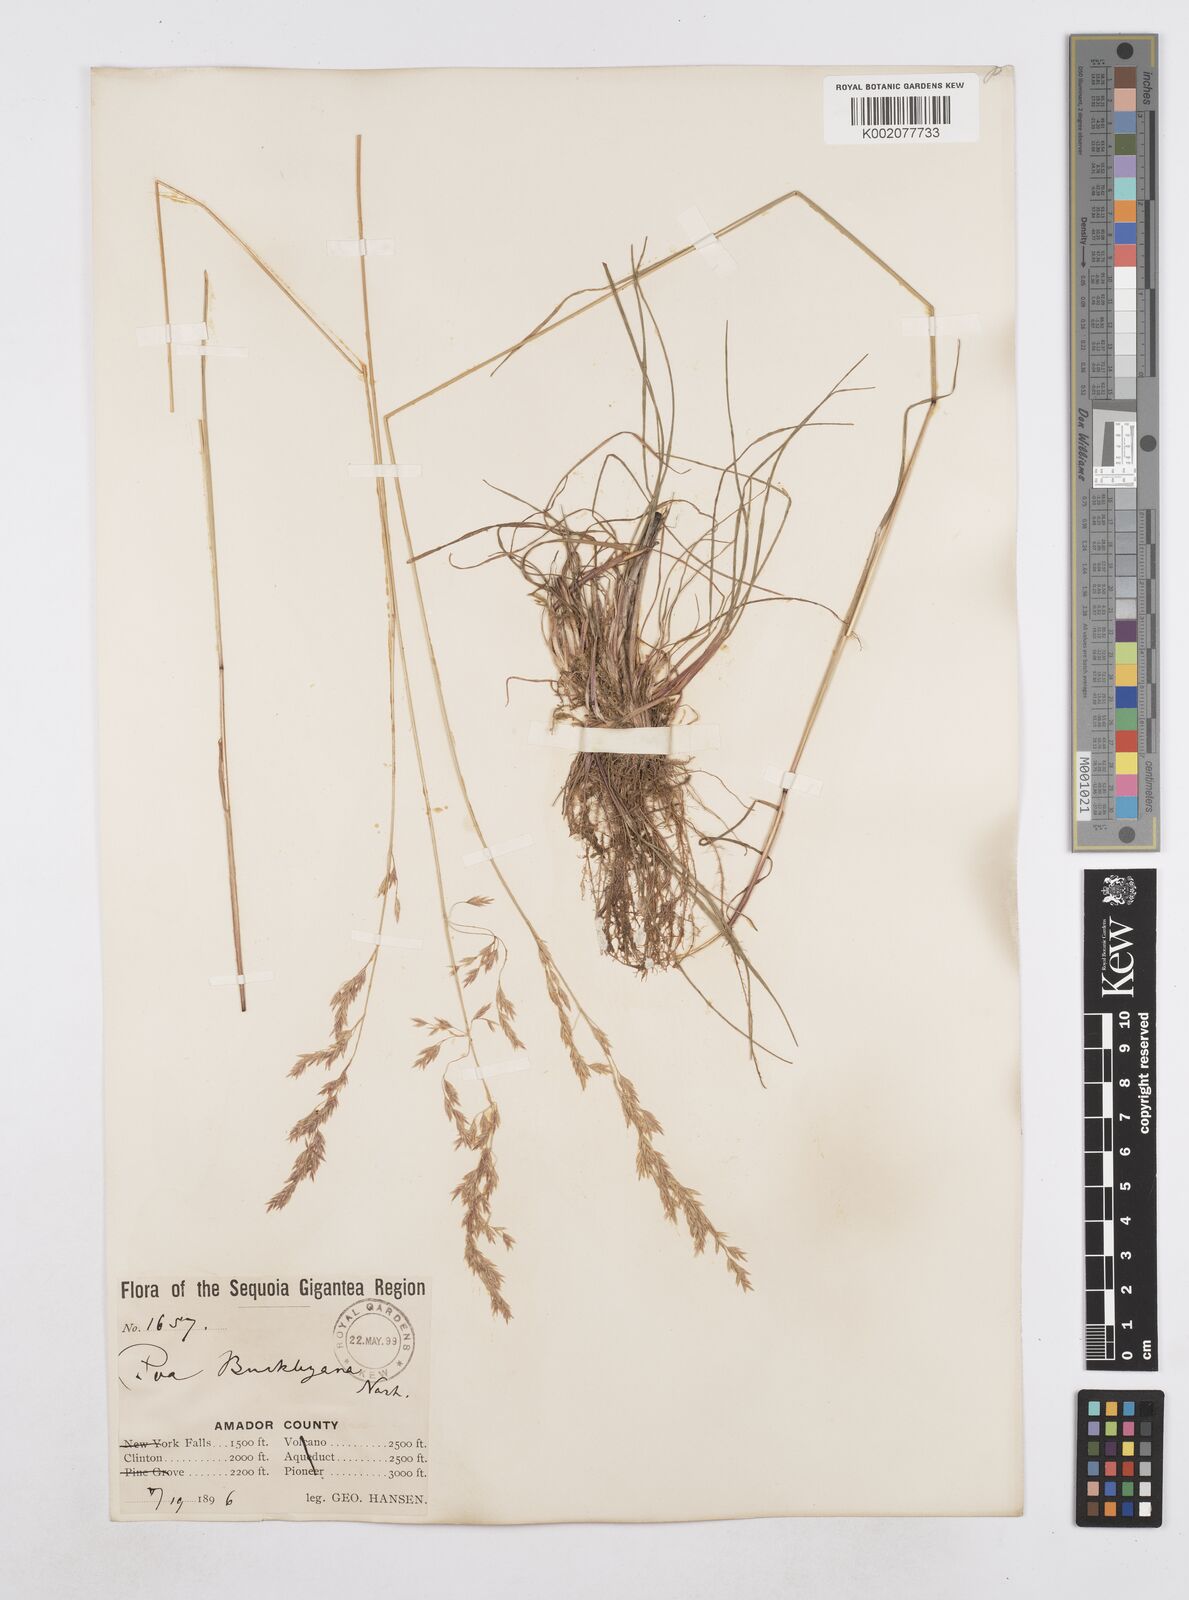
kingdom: Plantae
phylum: Tracheophyta
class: Liliopsida
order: Poales
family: Poaceae
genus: Poa
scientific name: Poa secunda
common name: Sandberg bluegrass
